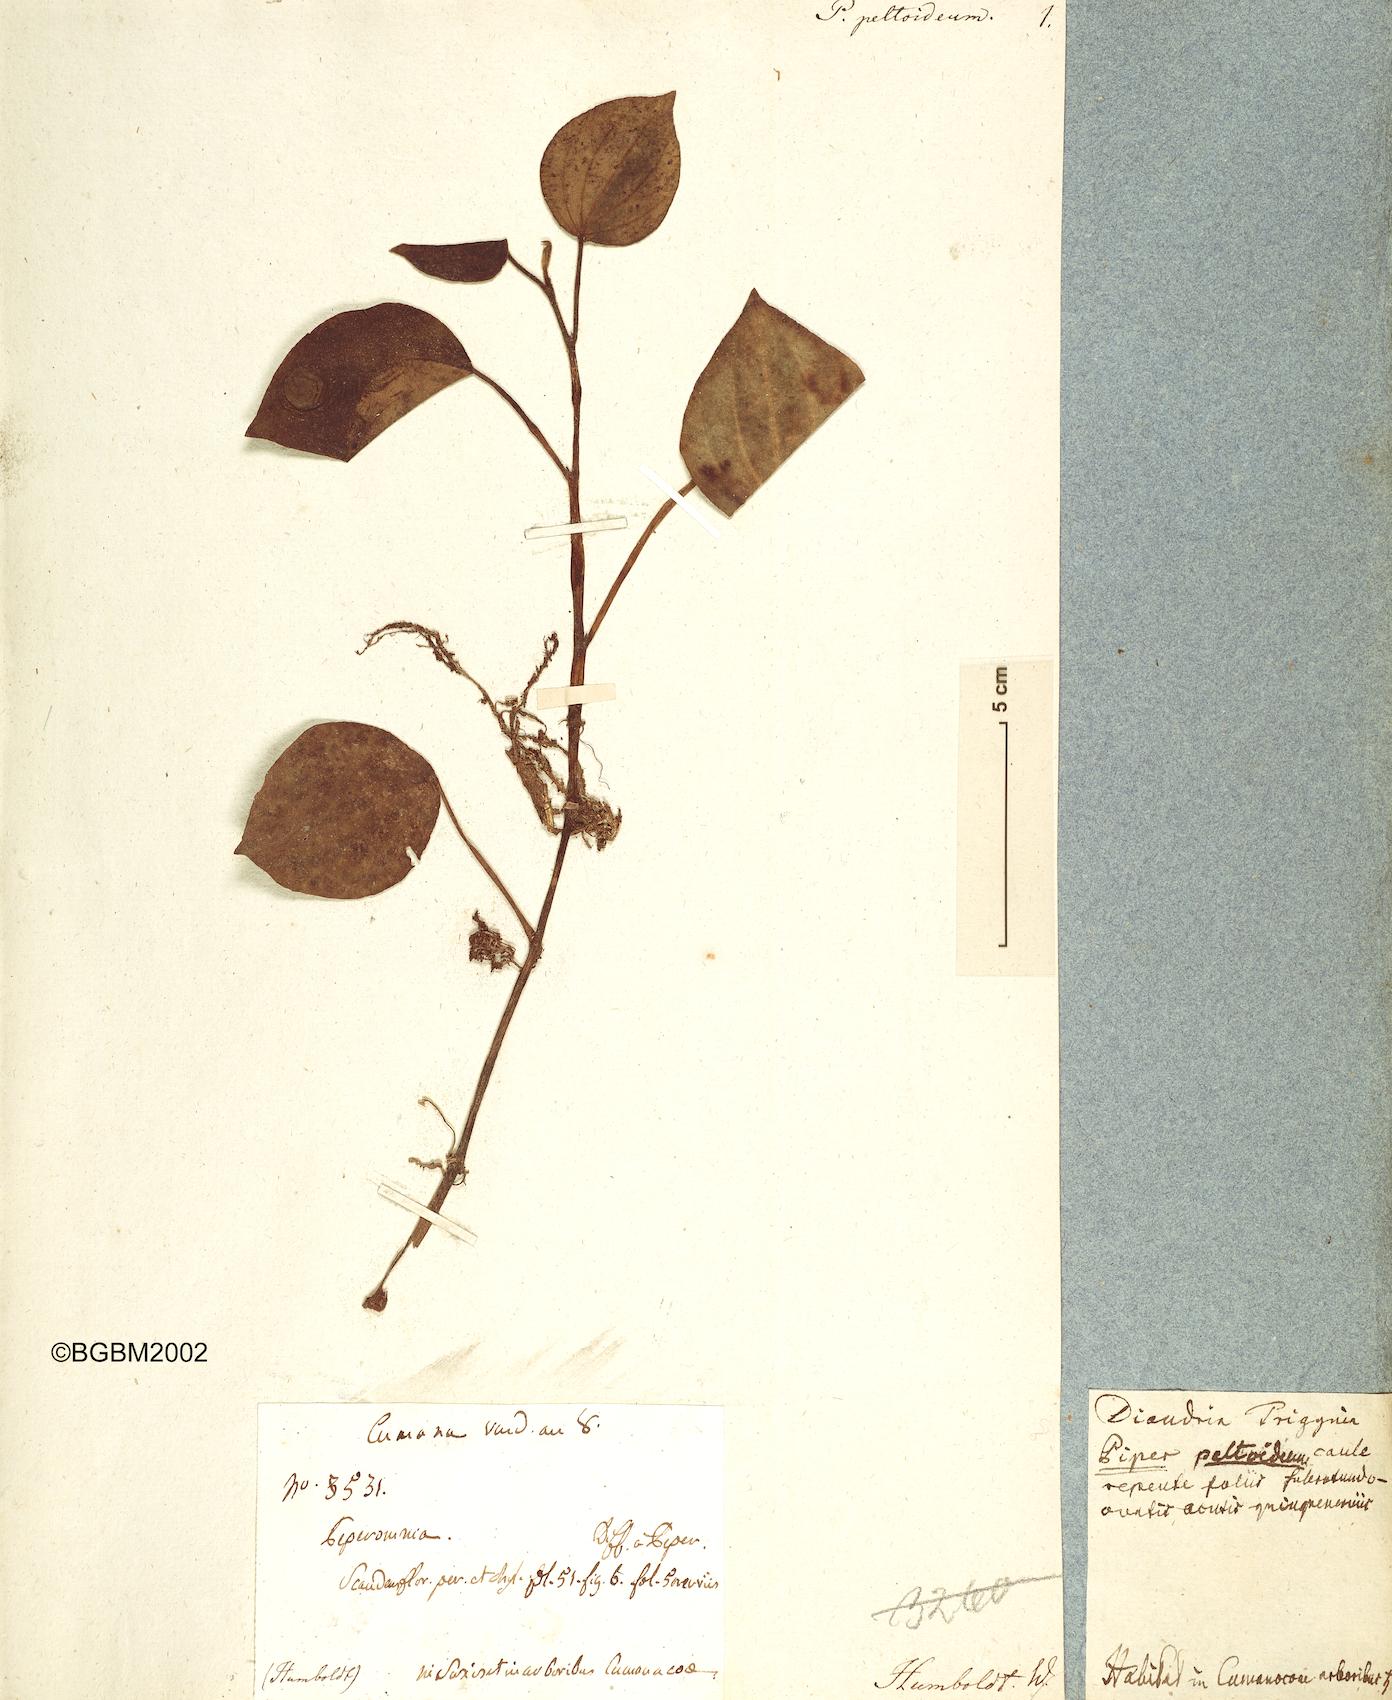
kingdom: Plantae
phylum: Tracheophyta
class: Magnoliopsida
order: Piperales
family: Piperaceae
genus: Peperomia
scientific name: Peperomia peltoidea
